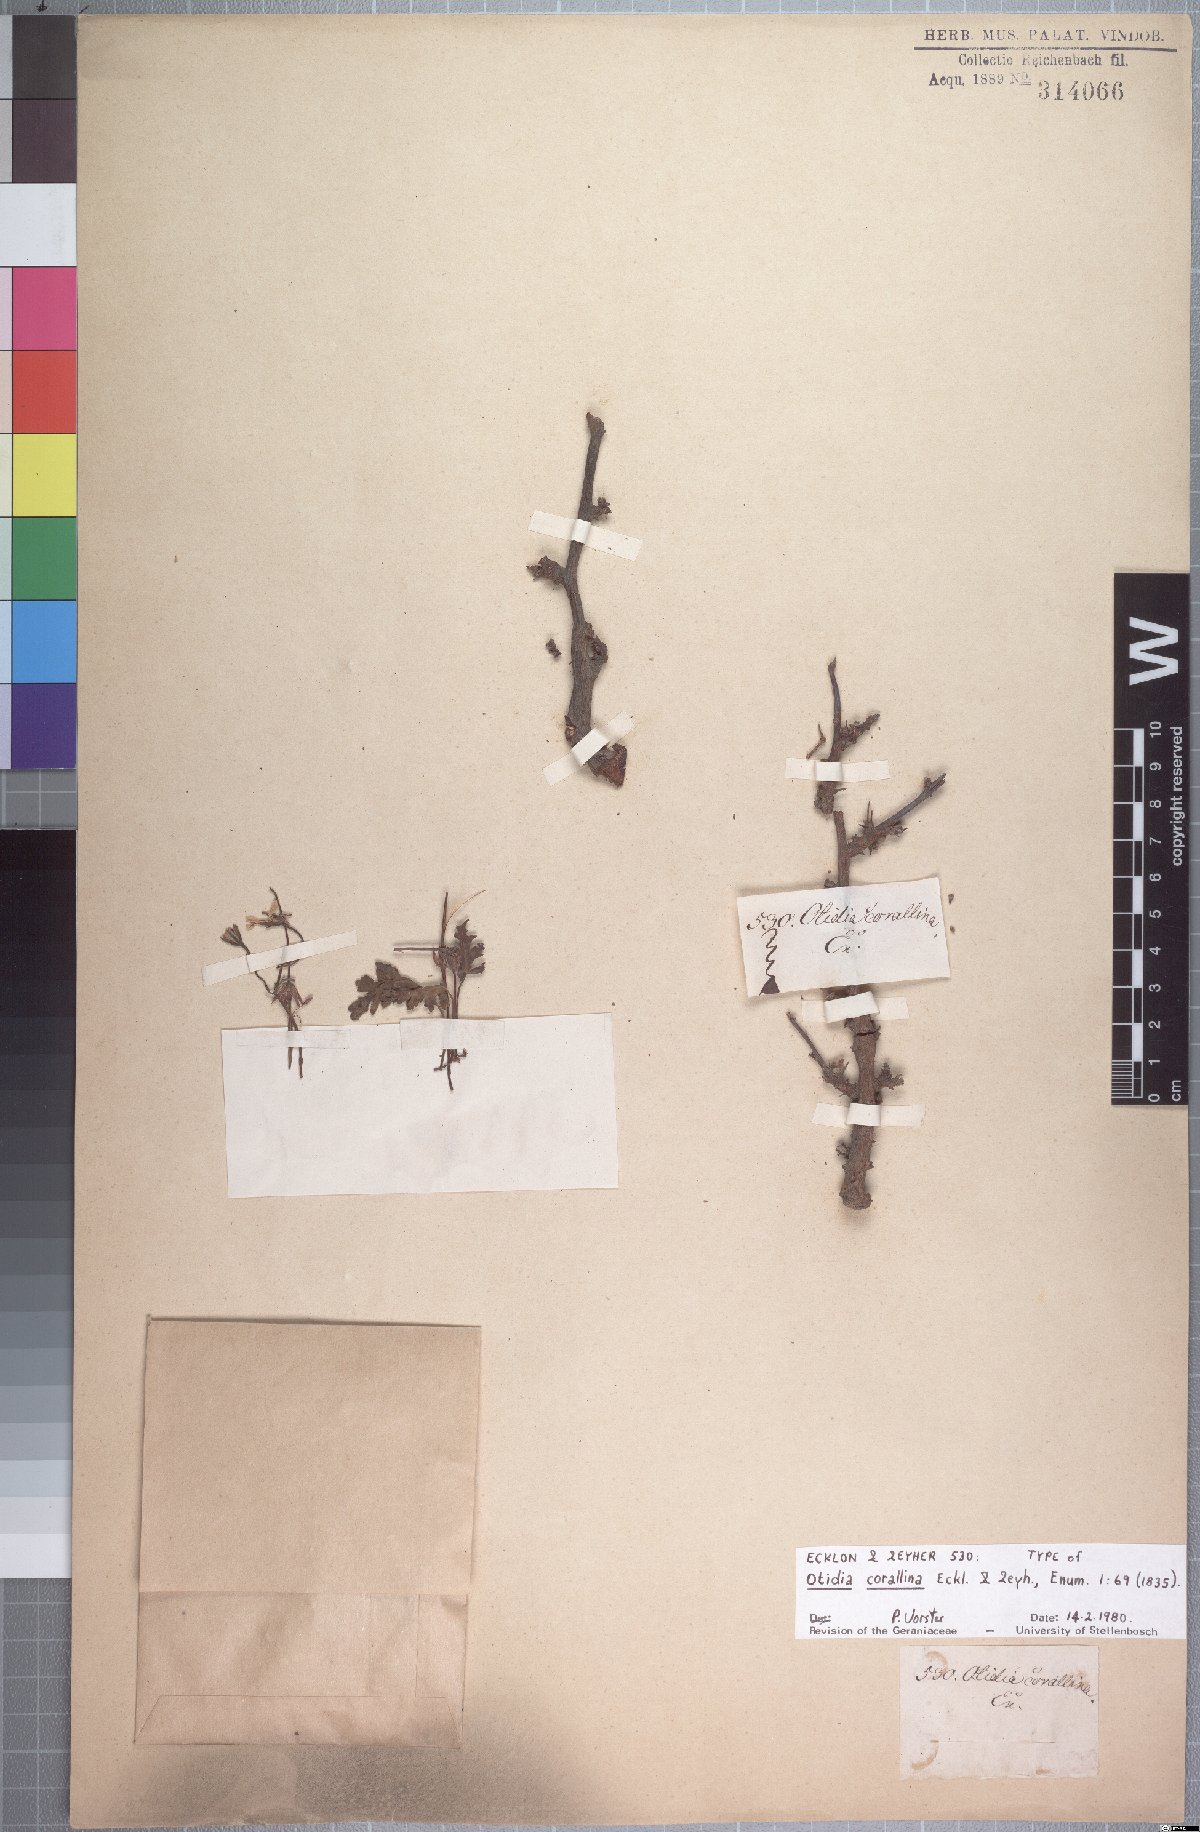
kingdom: Plantae
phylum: Tracheophyta
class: Magnoliopsida
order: Geraniales
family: Geraniaceae
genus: Pelargonium
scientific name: Pelargonium alternans
